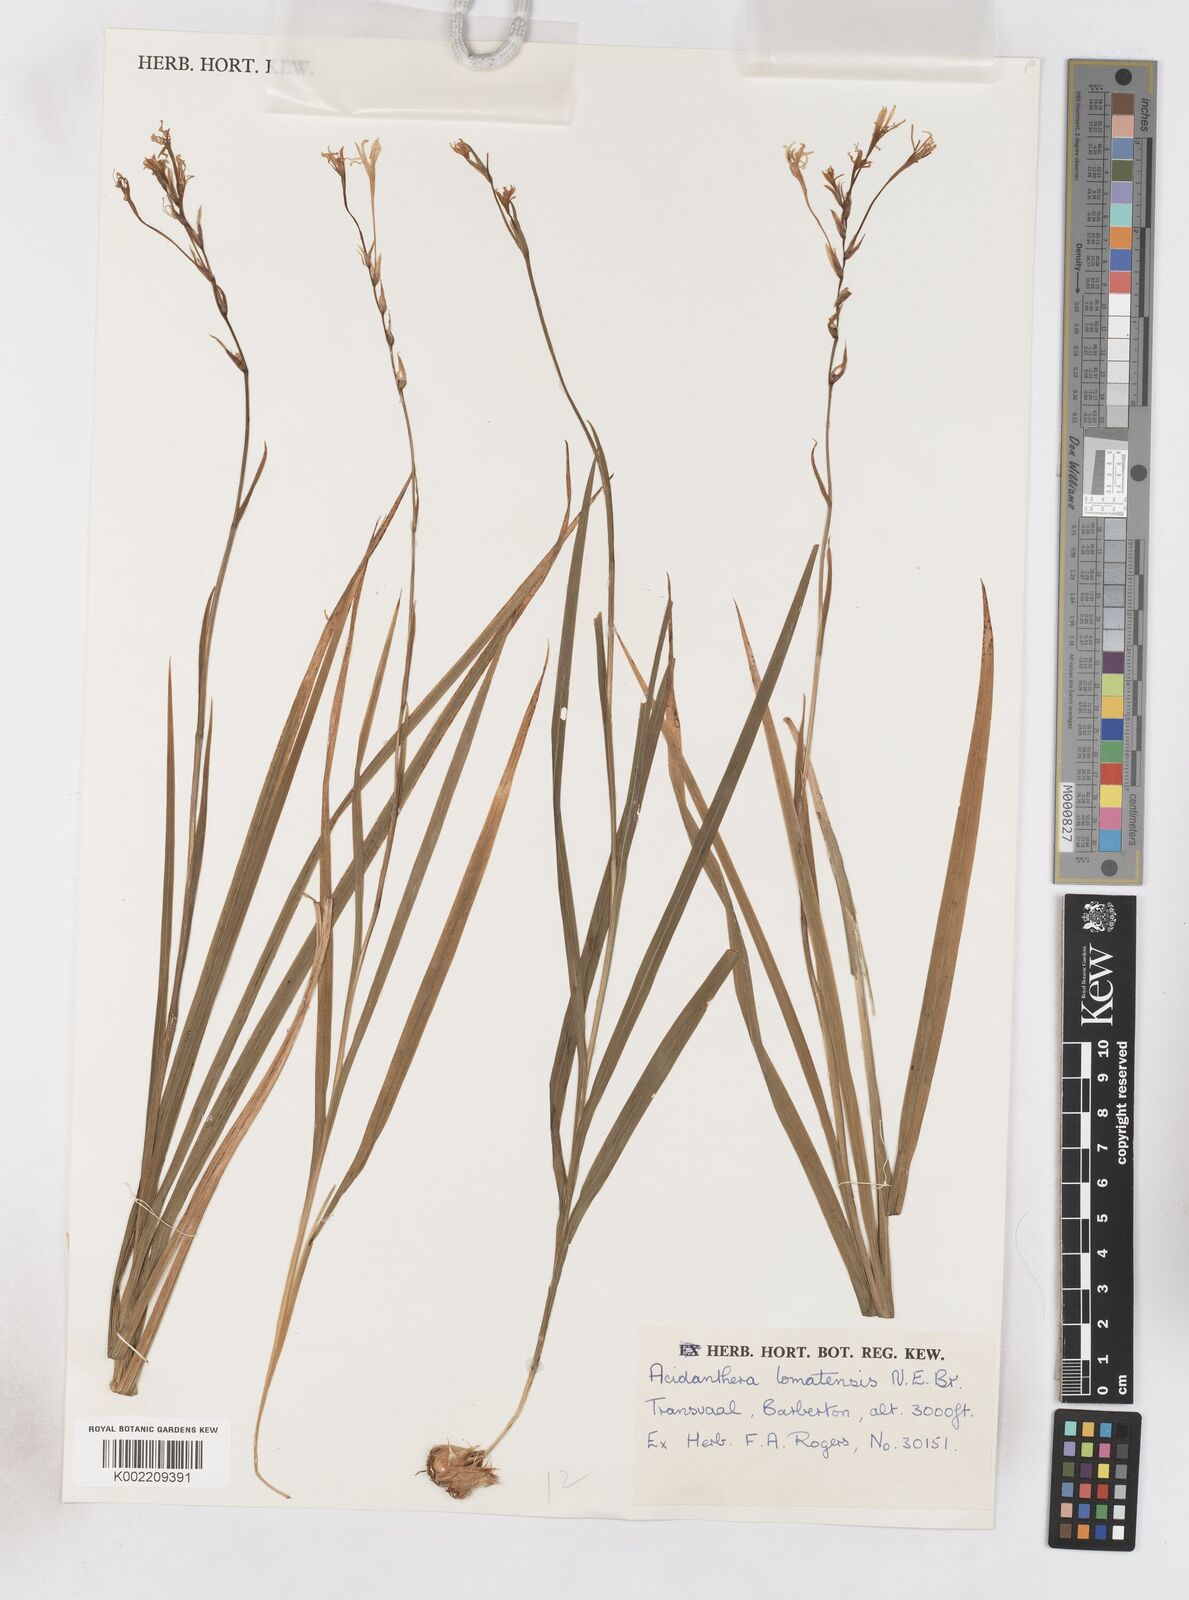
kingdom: Plantae
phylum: Tracheophyta
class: Liliopsida
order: Asparagales
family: Iridaceae
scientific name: Iridaceae
